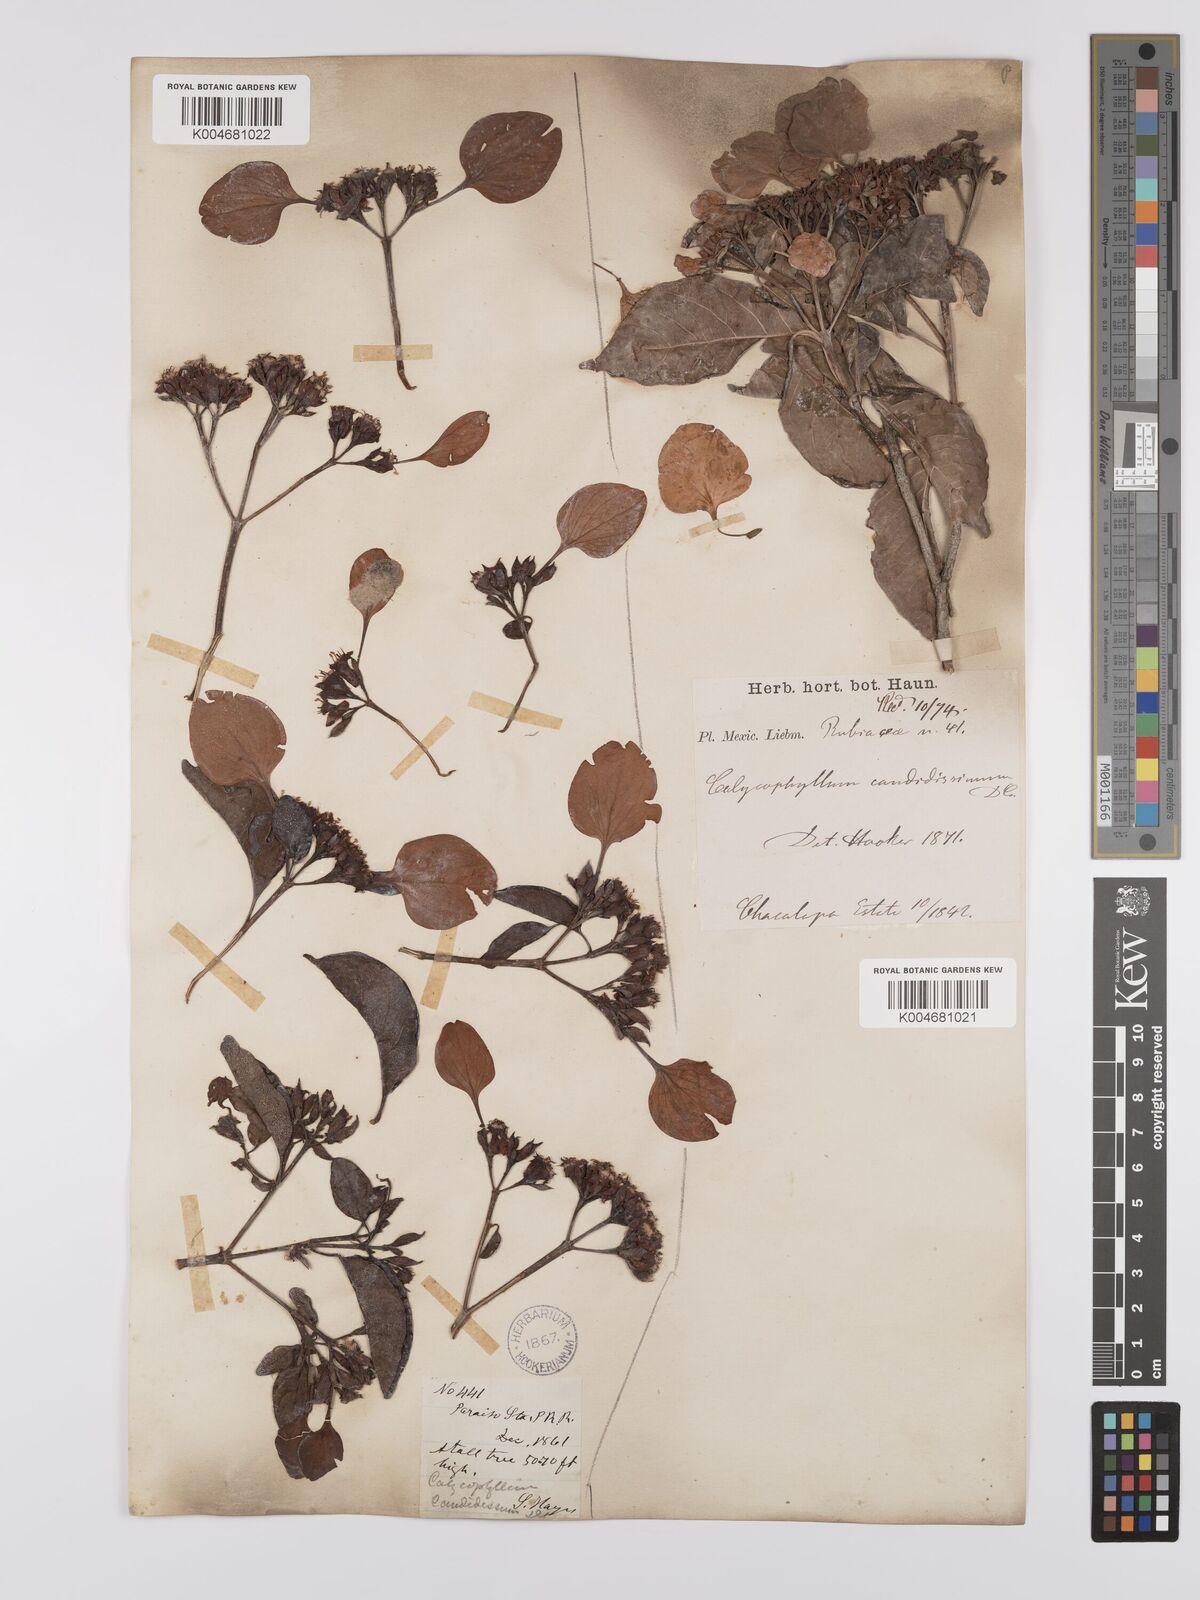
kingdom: Plantae
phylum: Tracheophyta
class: Magnoliopsida
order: Gentianales
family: Rubiaceae
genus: Calycophyllum
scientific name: Calycophyllum candidissimum
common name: Dagame
